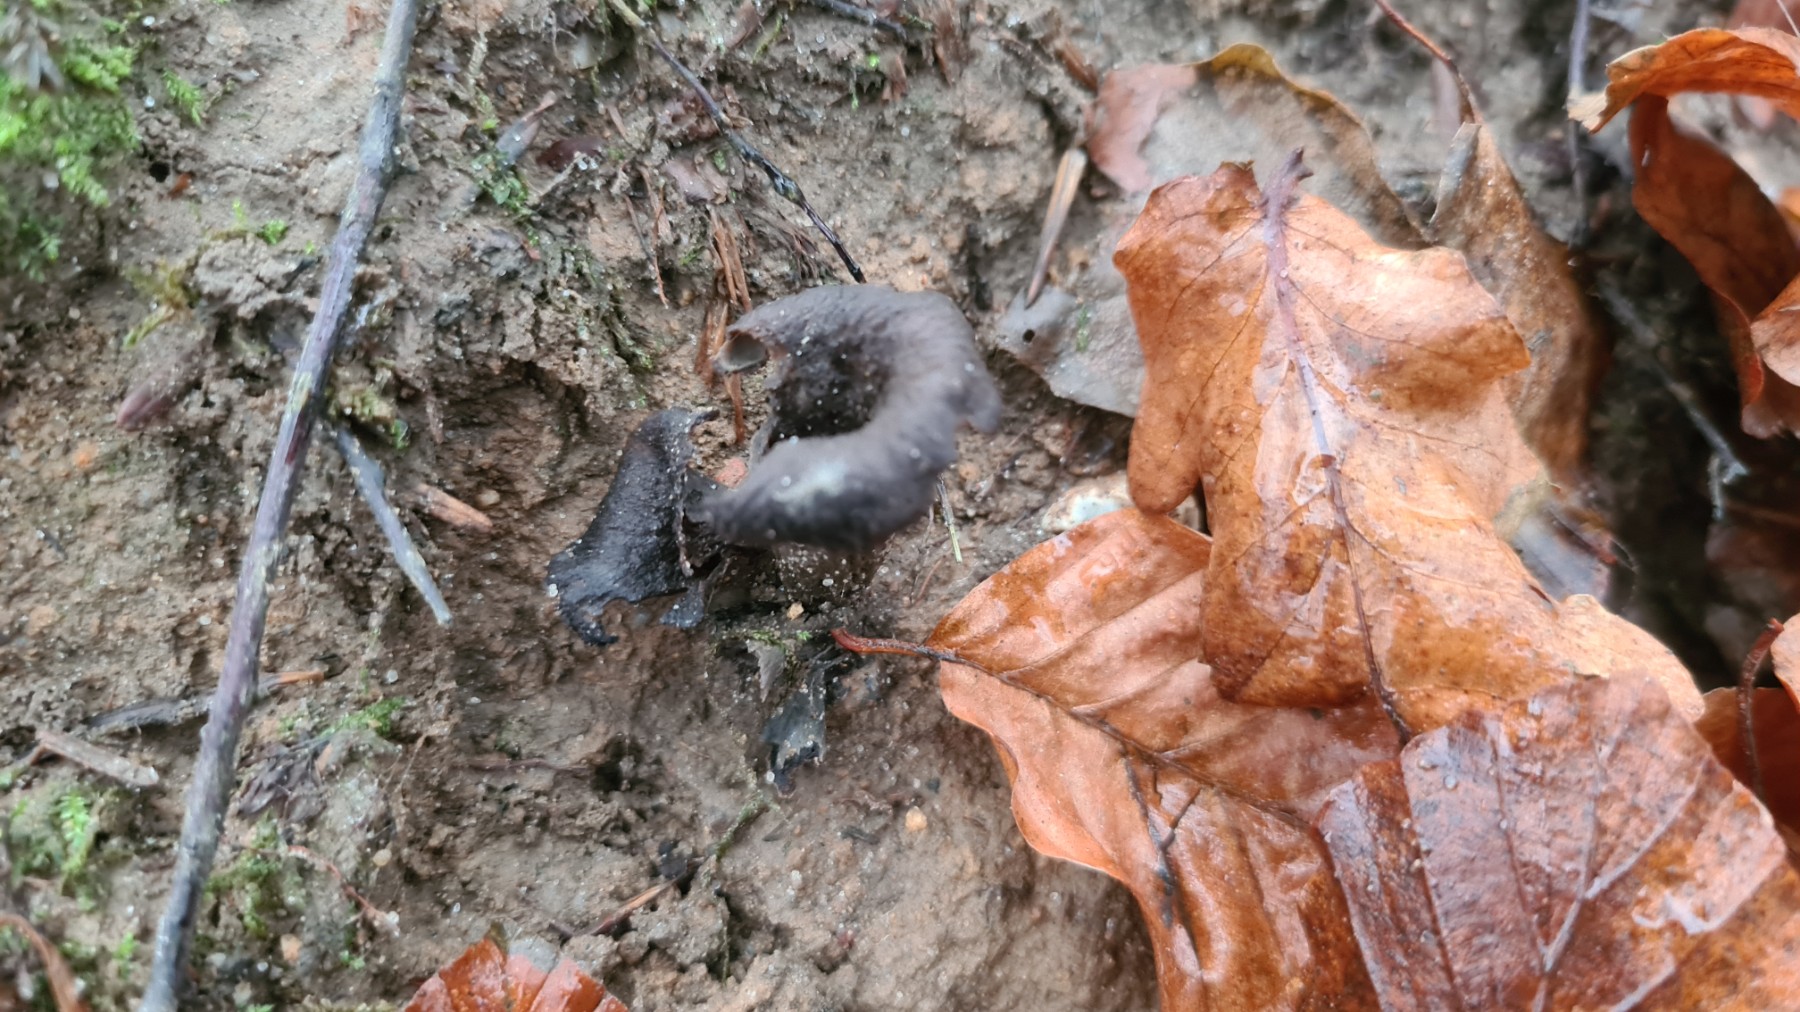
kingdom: Fungi
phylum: Basidiomycota
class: Agaricomycetes
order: Cantharellales
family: Hydnaceae
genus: Craterellus
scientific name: Craterellus cornucopioides
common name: trompetsvamp
